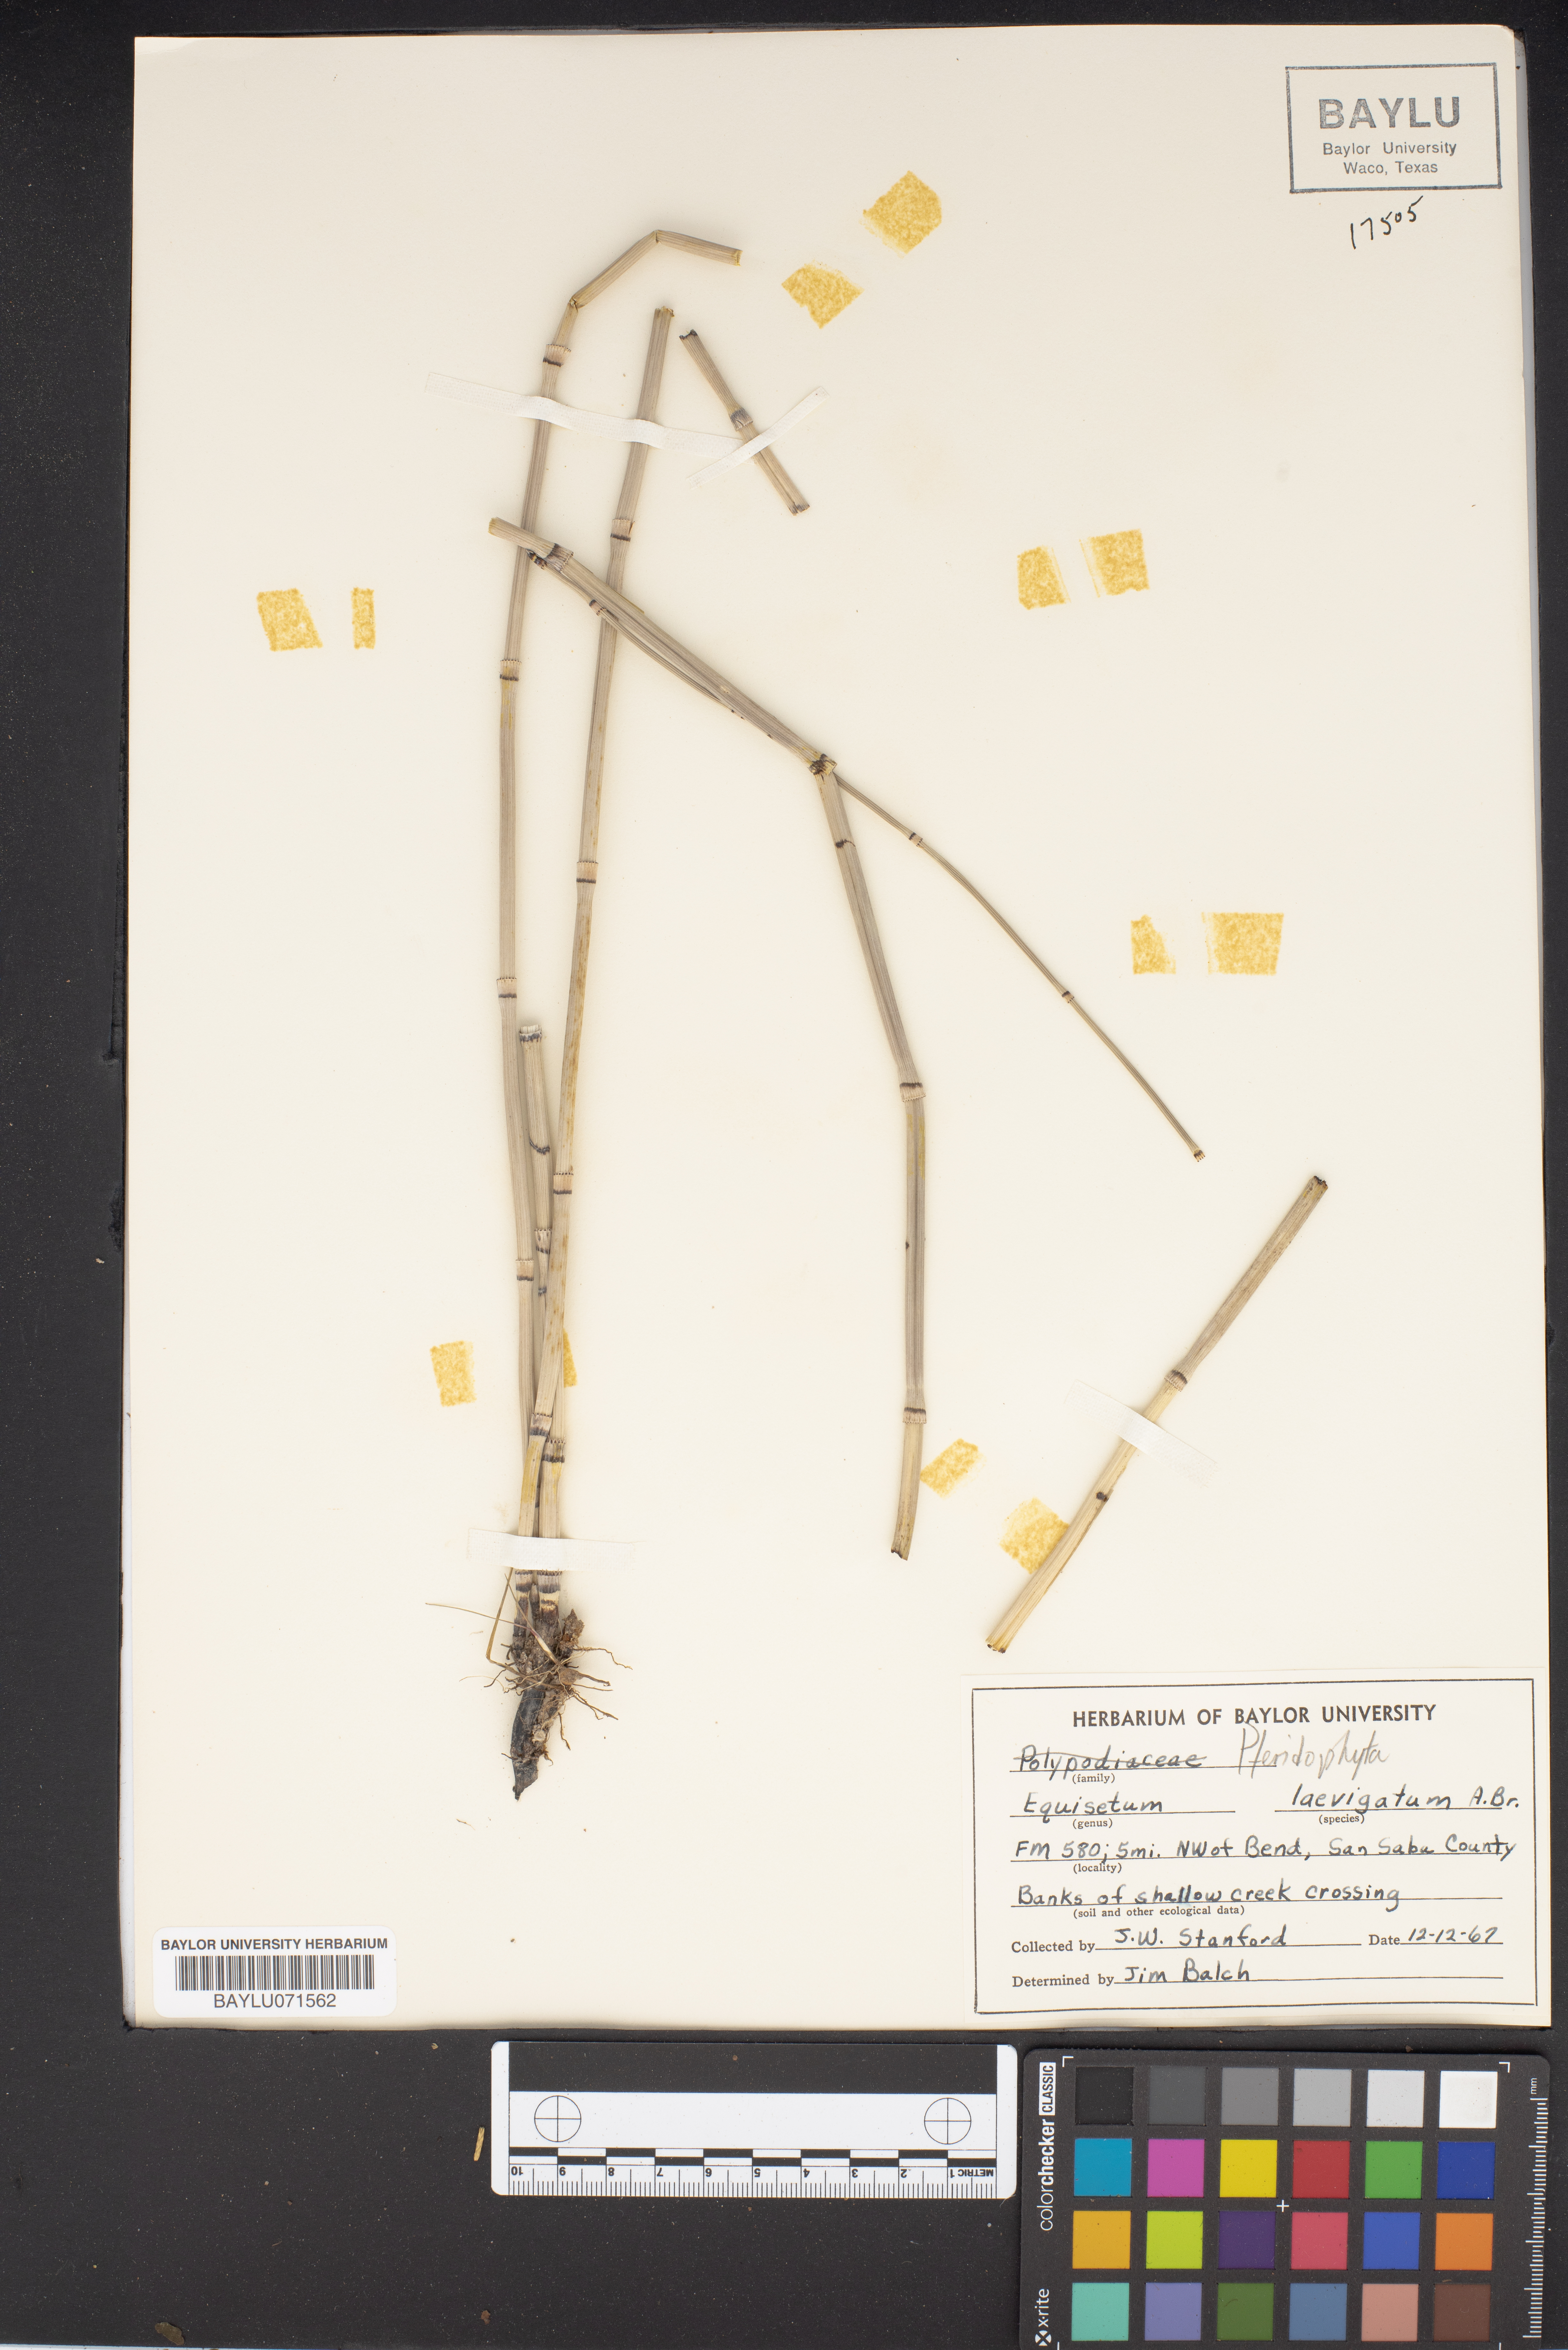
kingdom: Plantae
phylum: Tracheophyta
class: Polypodiopsida
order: Equisetales
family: Equisetaceae
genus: Equisetum
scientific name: Equisetum laevigatum
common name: Smooth scouring-rush
